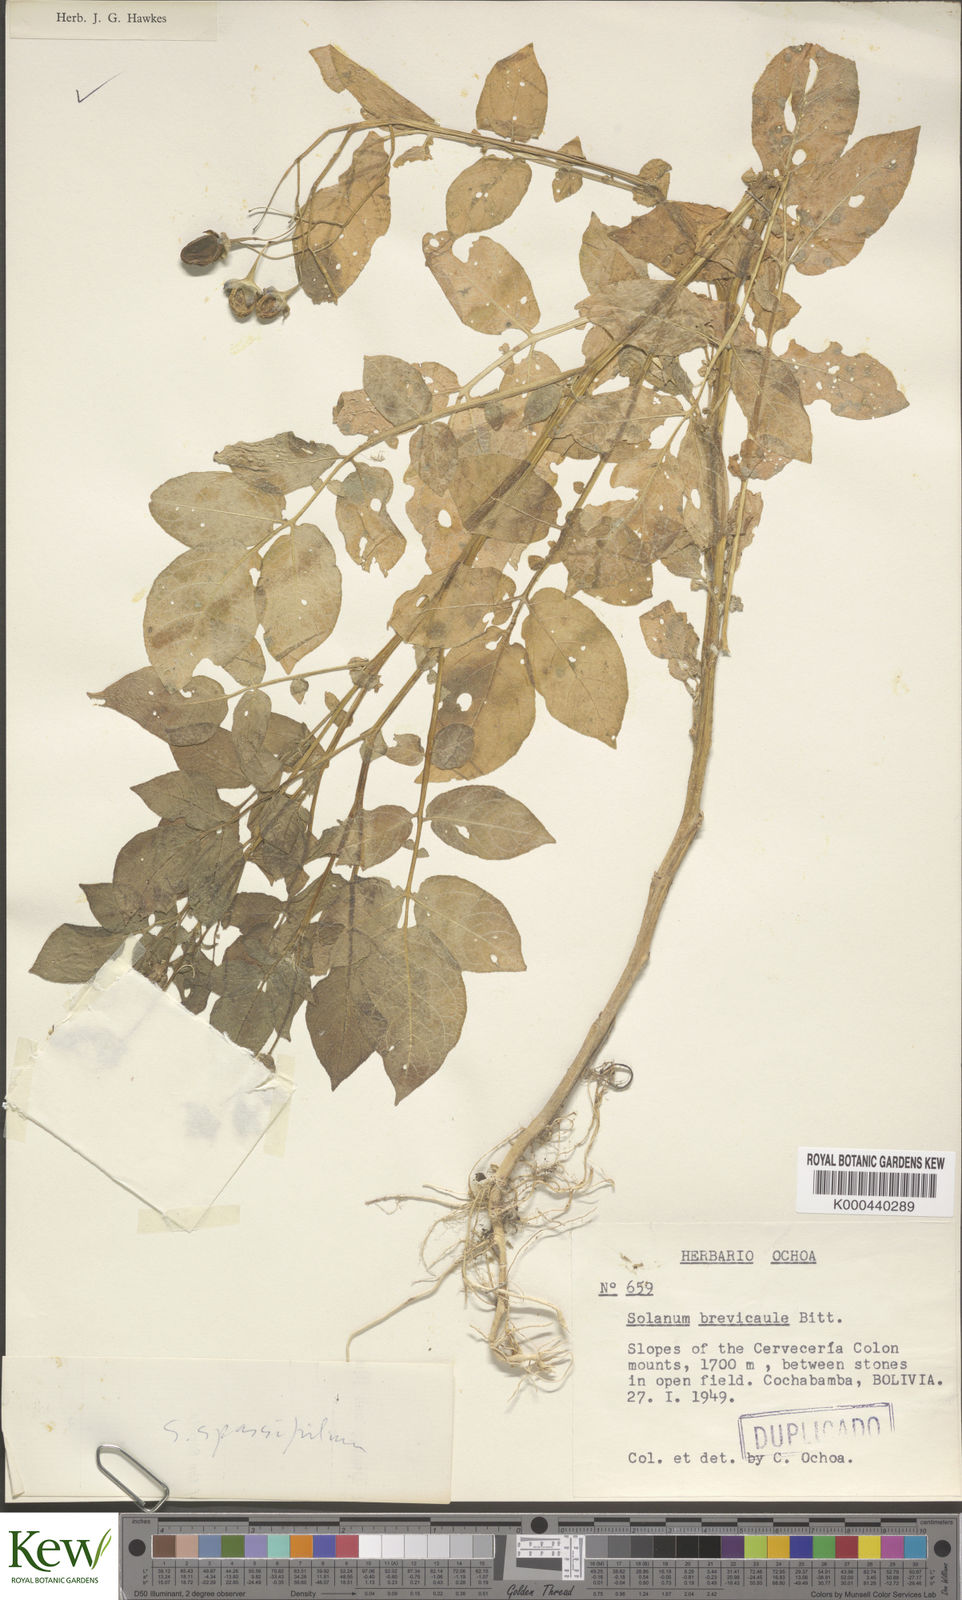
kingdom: Plantae
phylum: Tracheophyta
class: Magnoliopsida
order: Solanales
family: Solanaceae
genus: Solanum
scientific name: Solanum brevicaule
